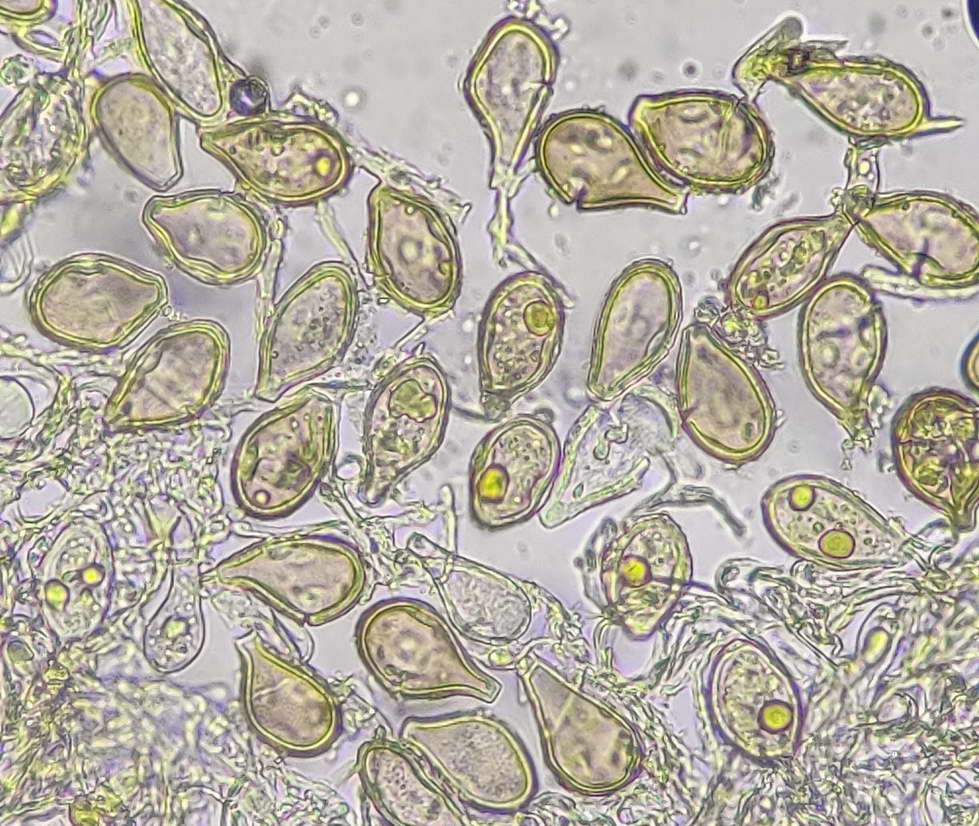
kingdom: Fungi
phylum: Basidiomycota
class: Pucciniomycetes
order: Pucciniales
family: Pucciniaceae
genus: Cumminsiella
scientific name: Cumminsiella mirabilissima
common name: mahonierust
